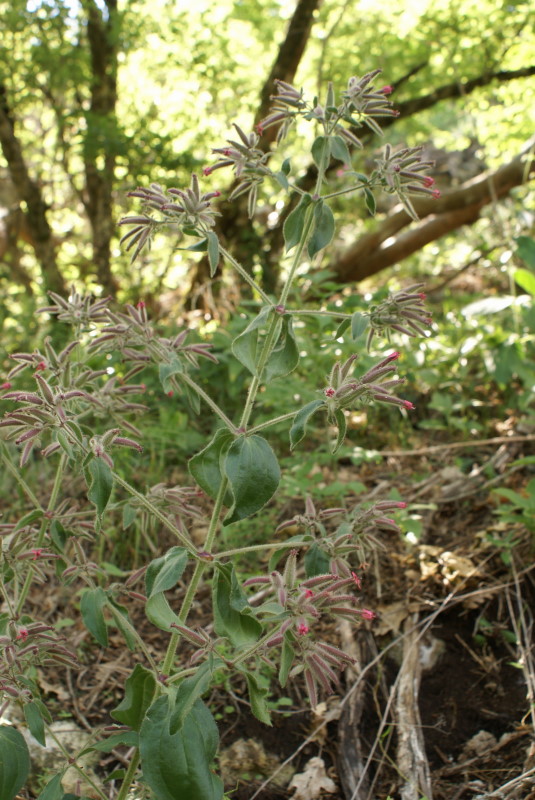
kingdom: Plantae
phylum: Tracheophyta
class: Magnoliopsida
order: Caryophyllales
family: Caryophyllaceae
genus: Saponaria
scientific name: Saponaria glutinosa
